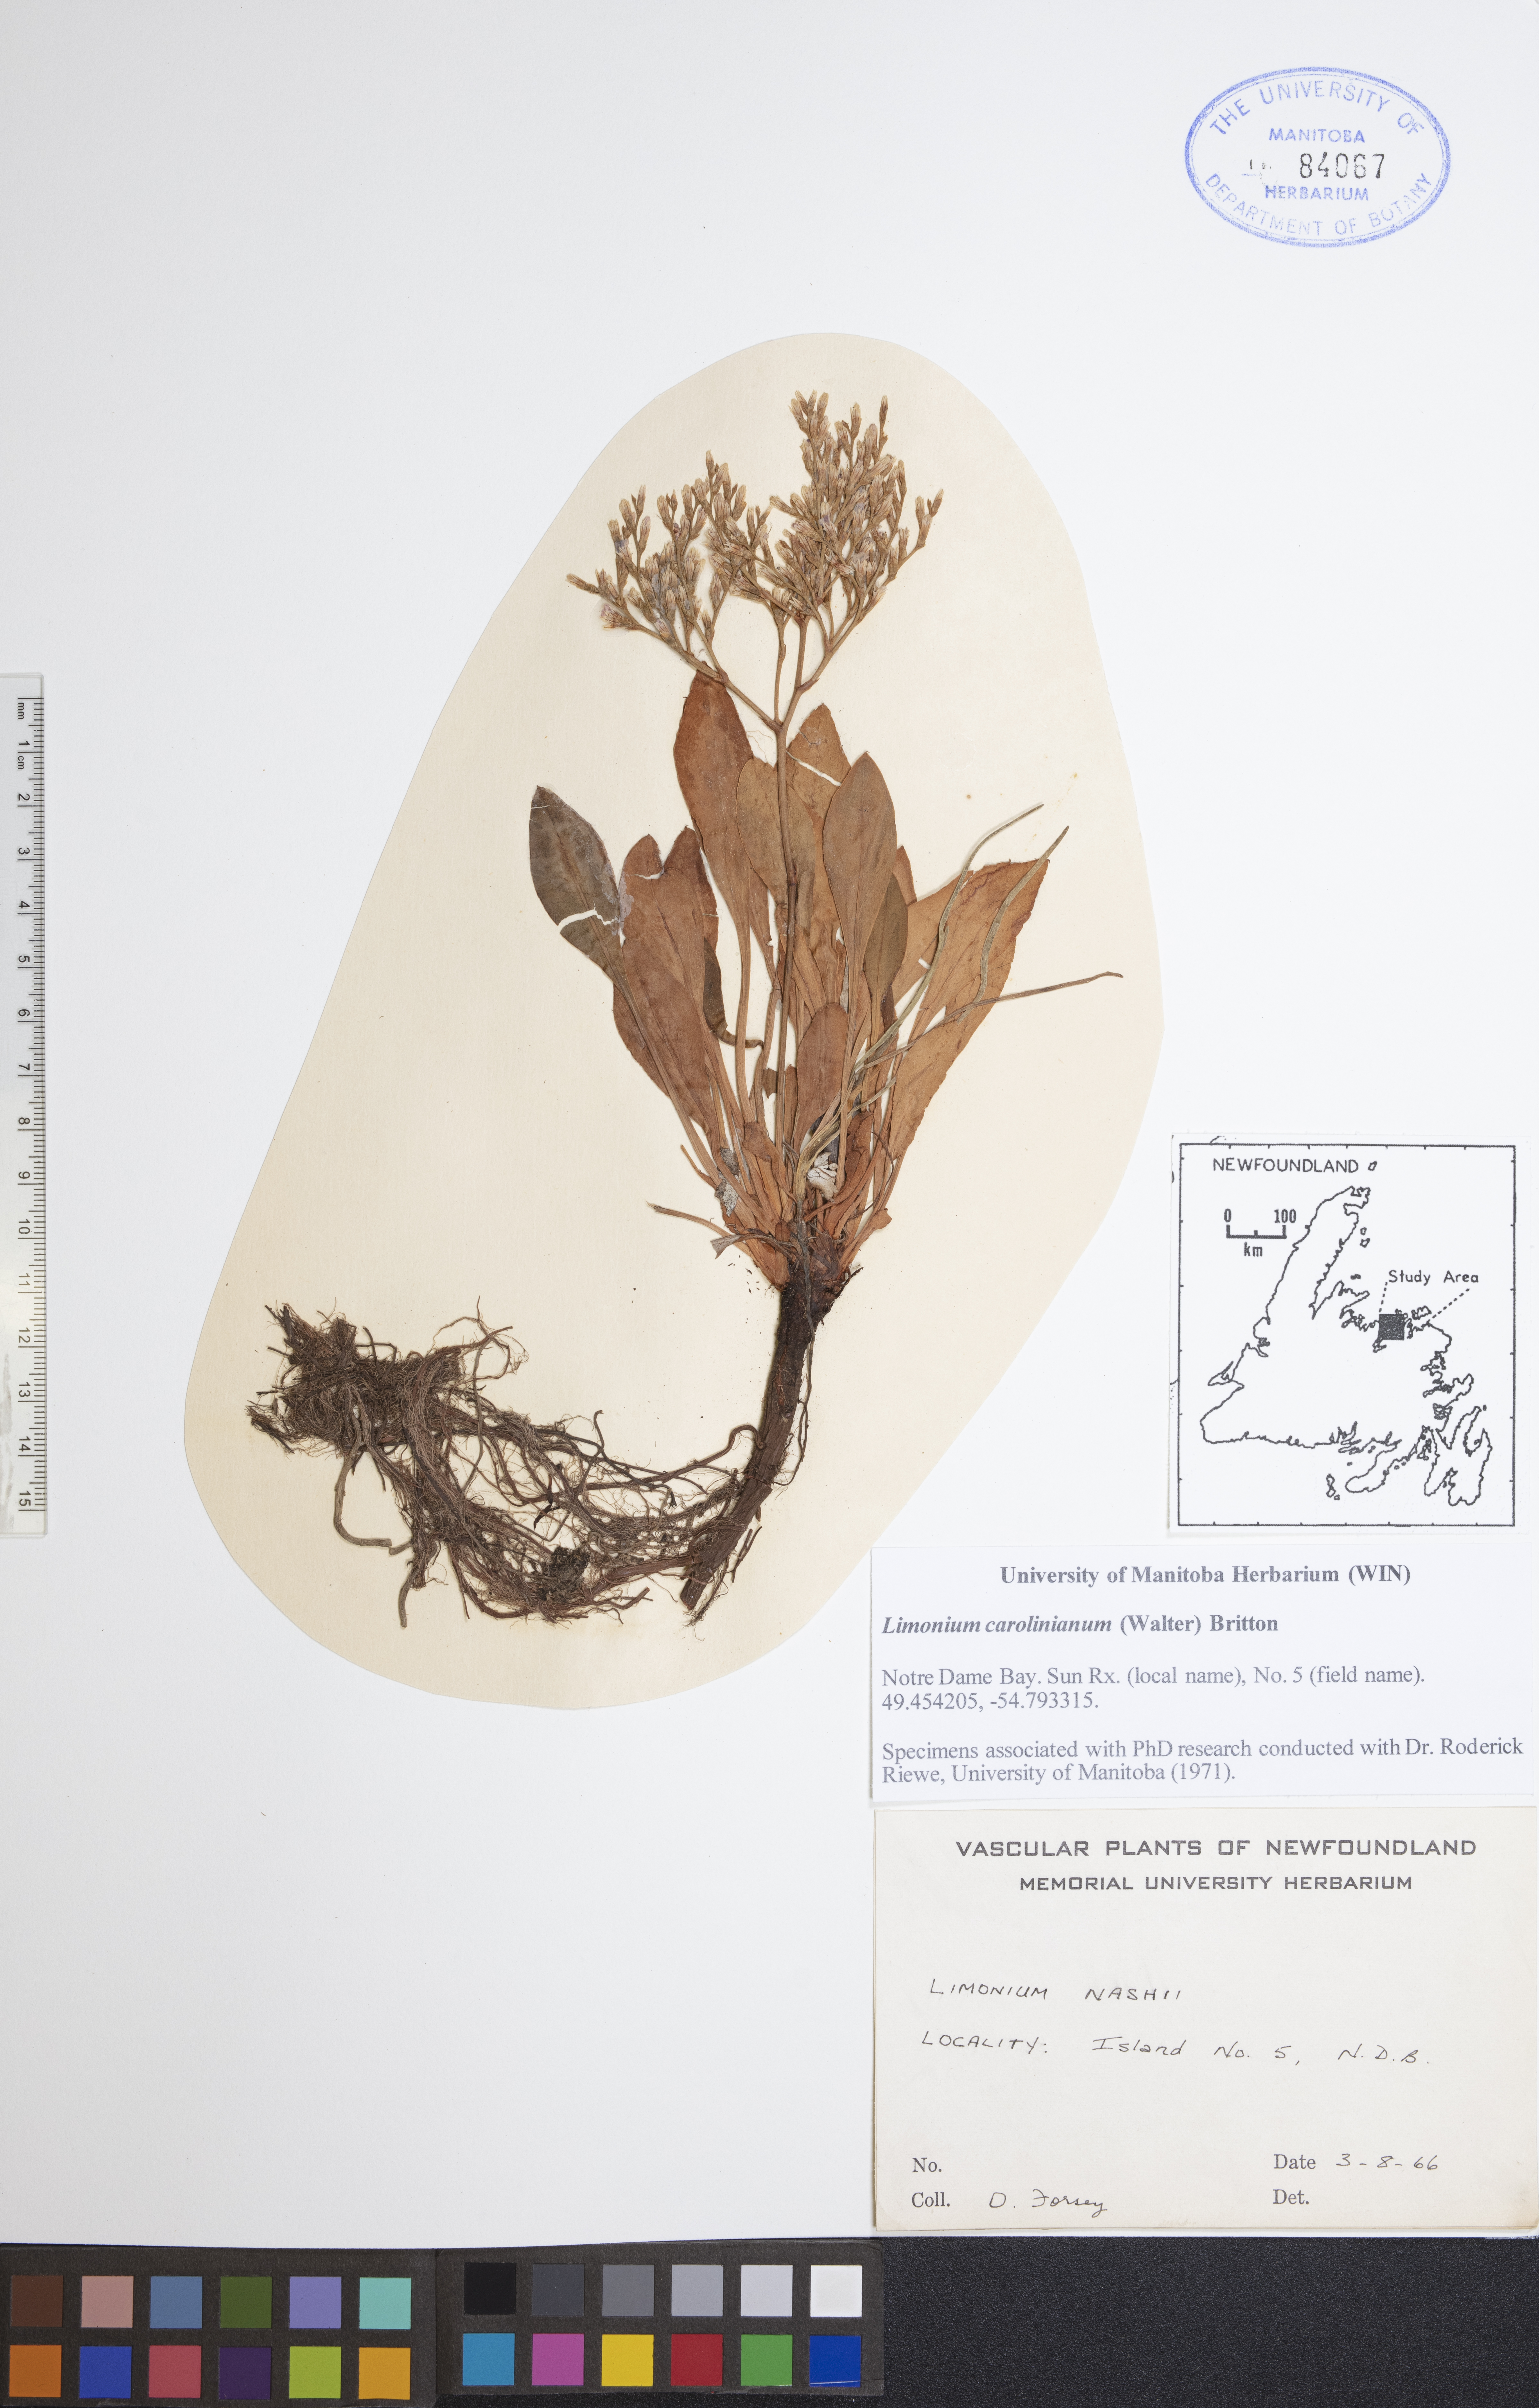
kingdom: Plantae
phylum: Tracheophyta
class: Magnoliopsida
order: Caryophyllales
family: Plumbaginaceae
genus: Limonium
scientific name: Limonium carolinianum
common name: Carolina sea lavender
